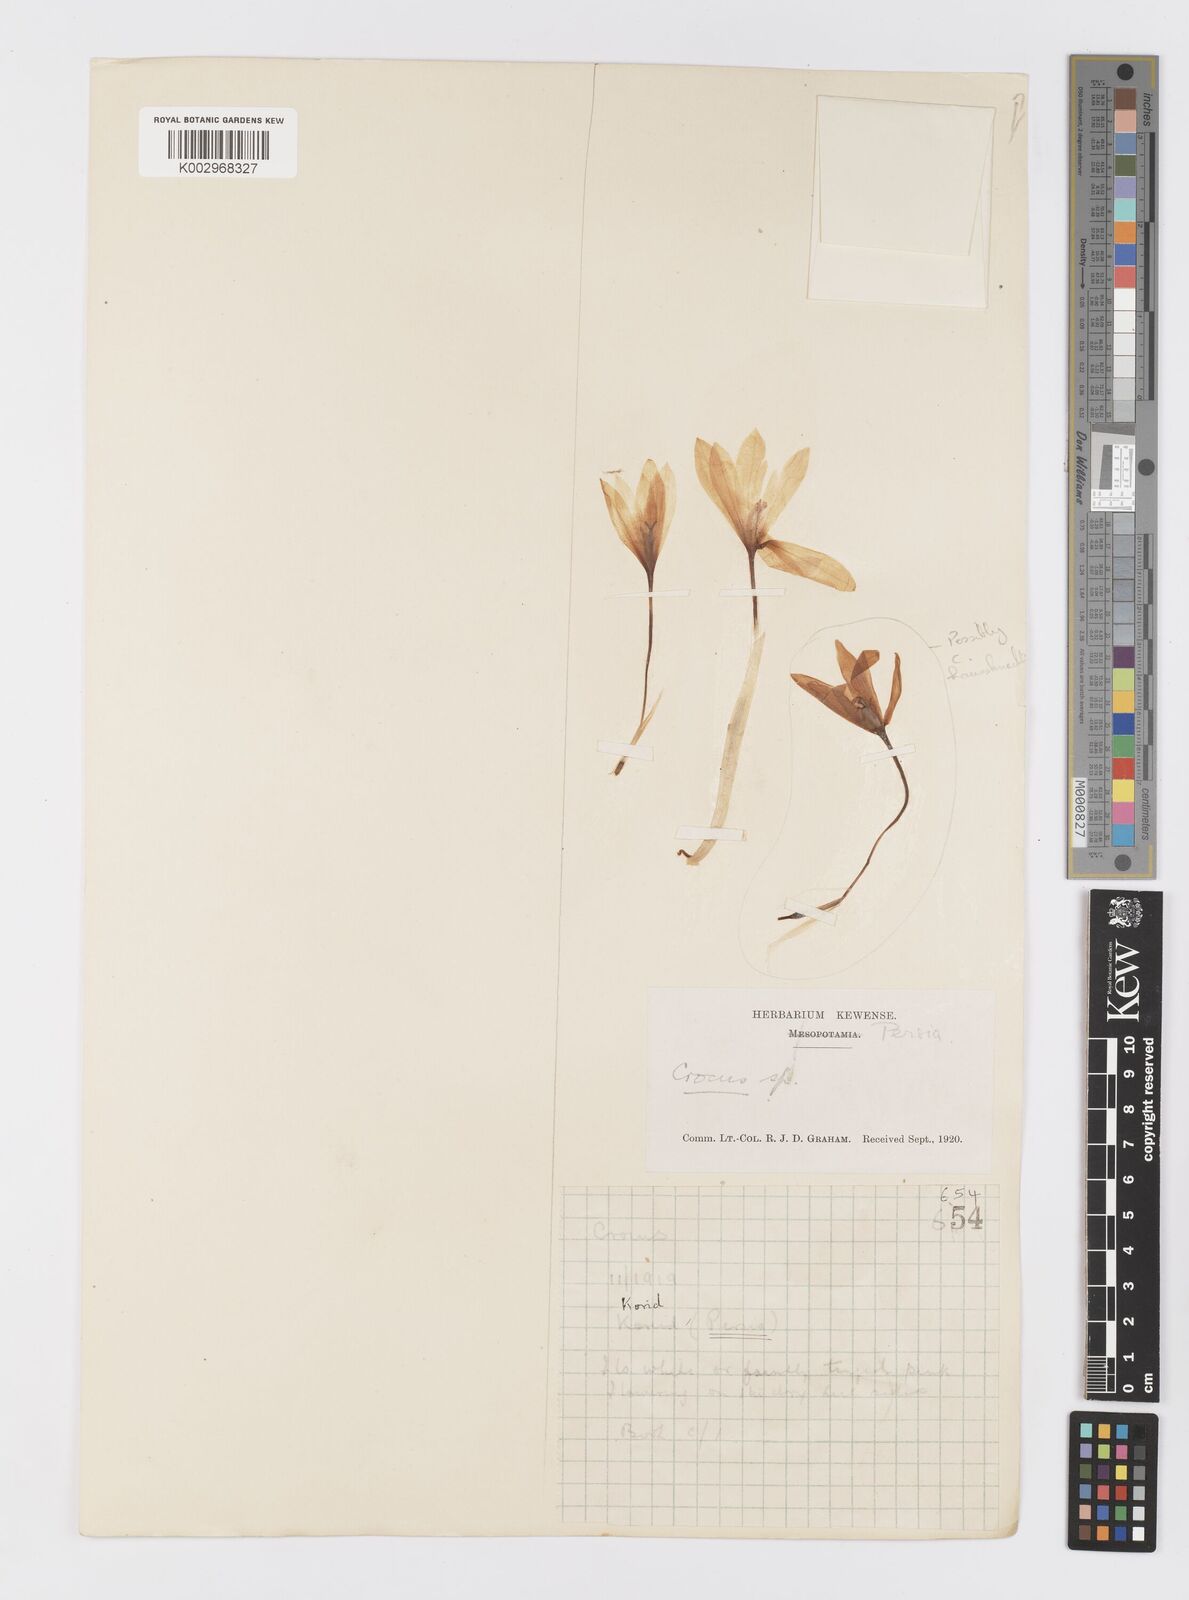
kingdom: Plantae
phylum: Tracheophyta
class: Liliopsida
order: Asparagales
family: Iridaceae
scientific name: Iridaceae
